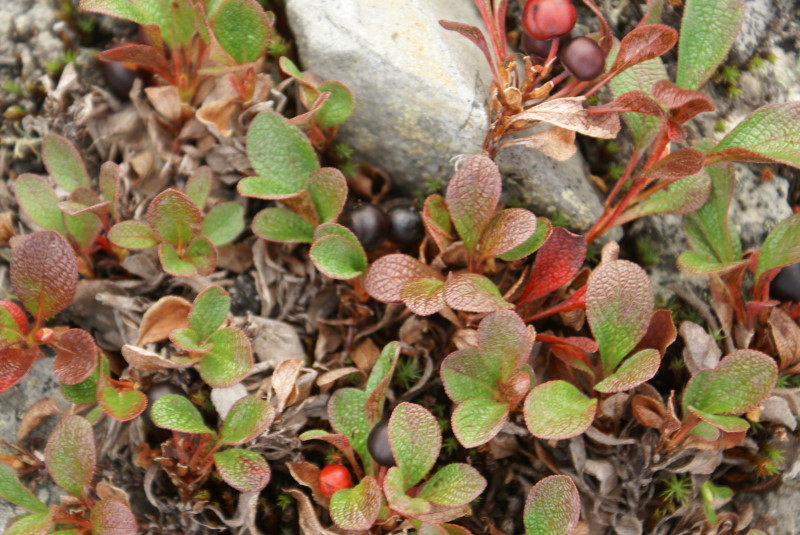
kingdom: Plantae
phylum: Tracheophyta
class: Magnoliopsida
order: Cornales
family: Cornaceae
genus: Cornus
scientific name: Cornus suecica
